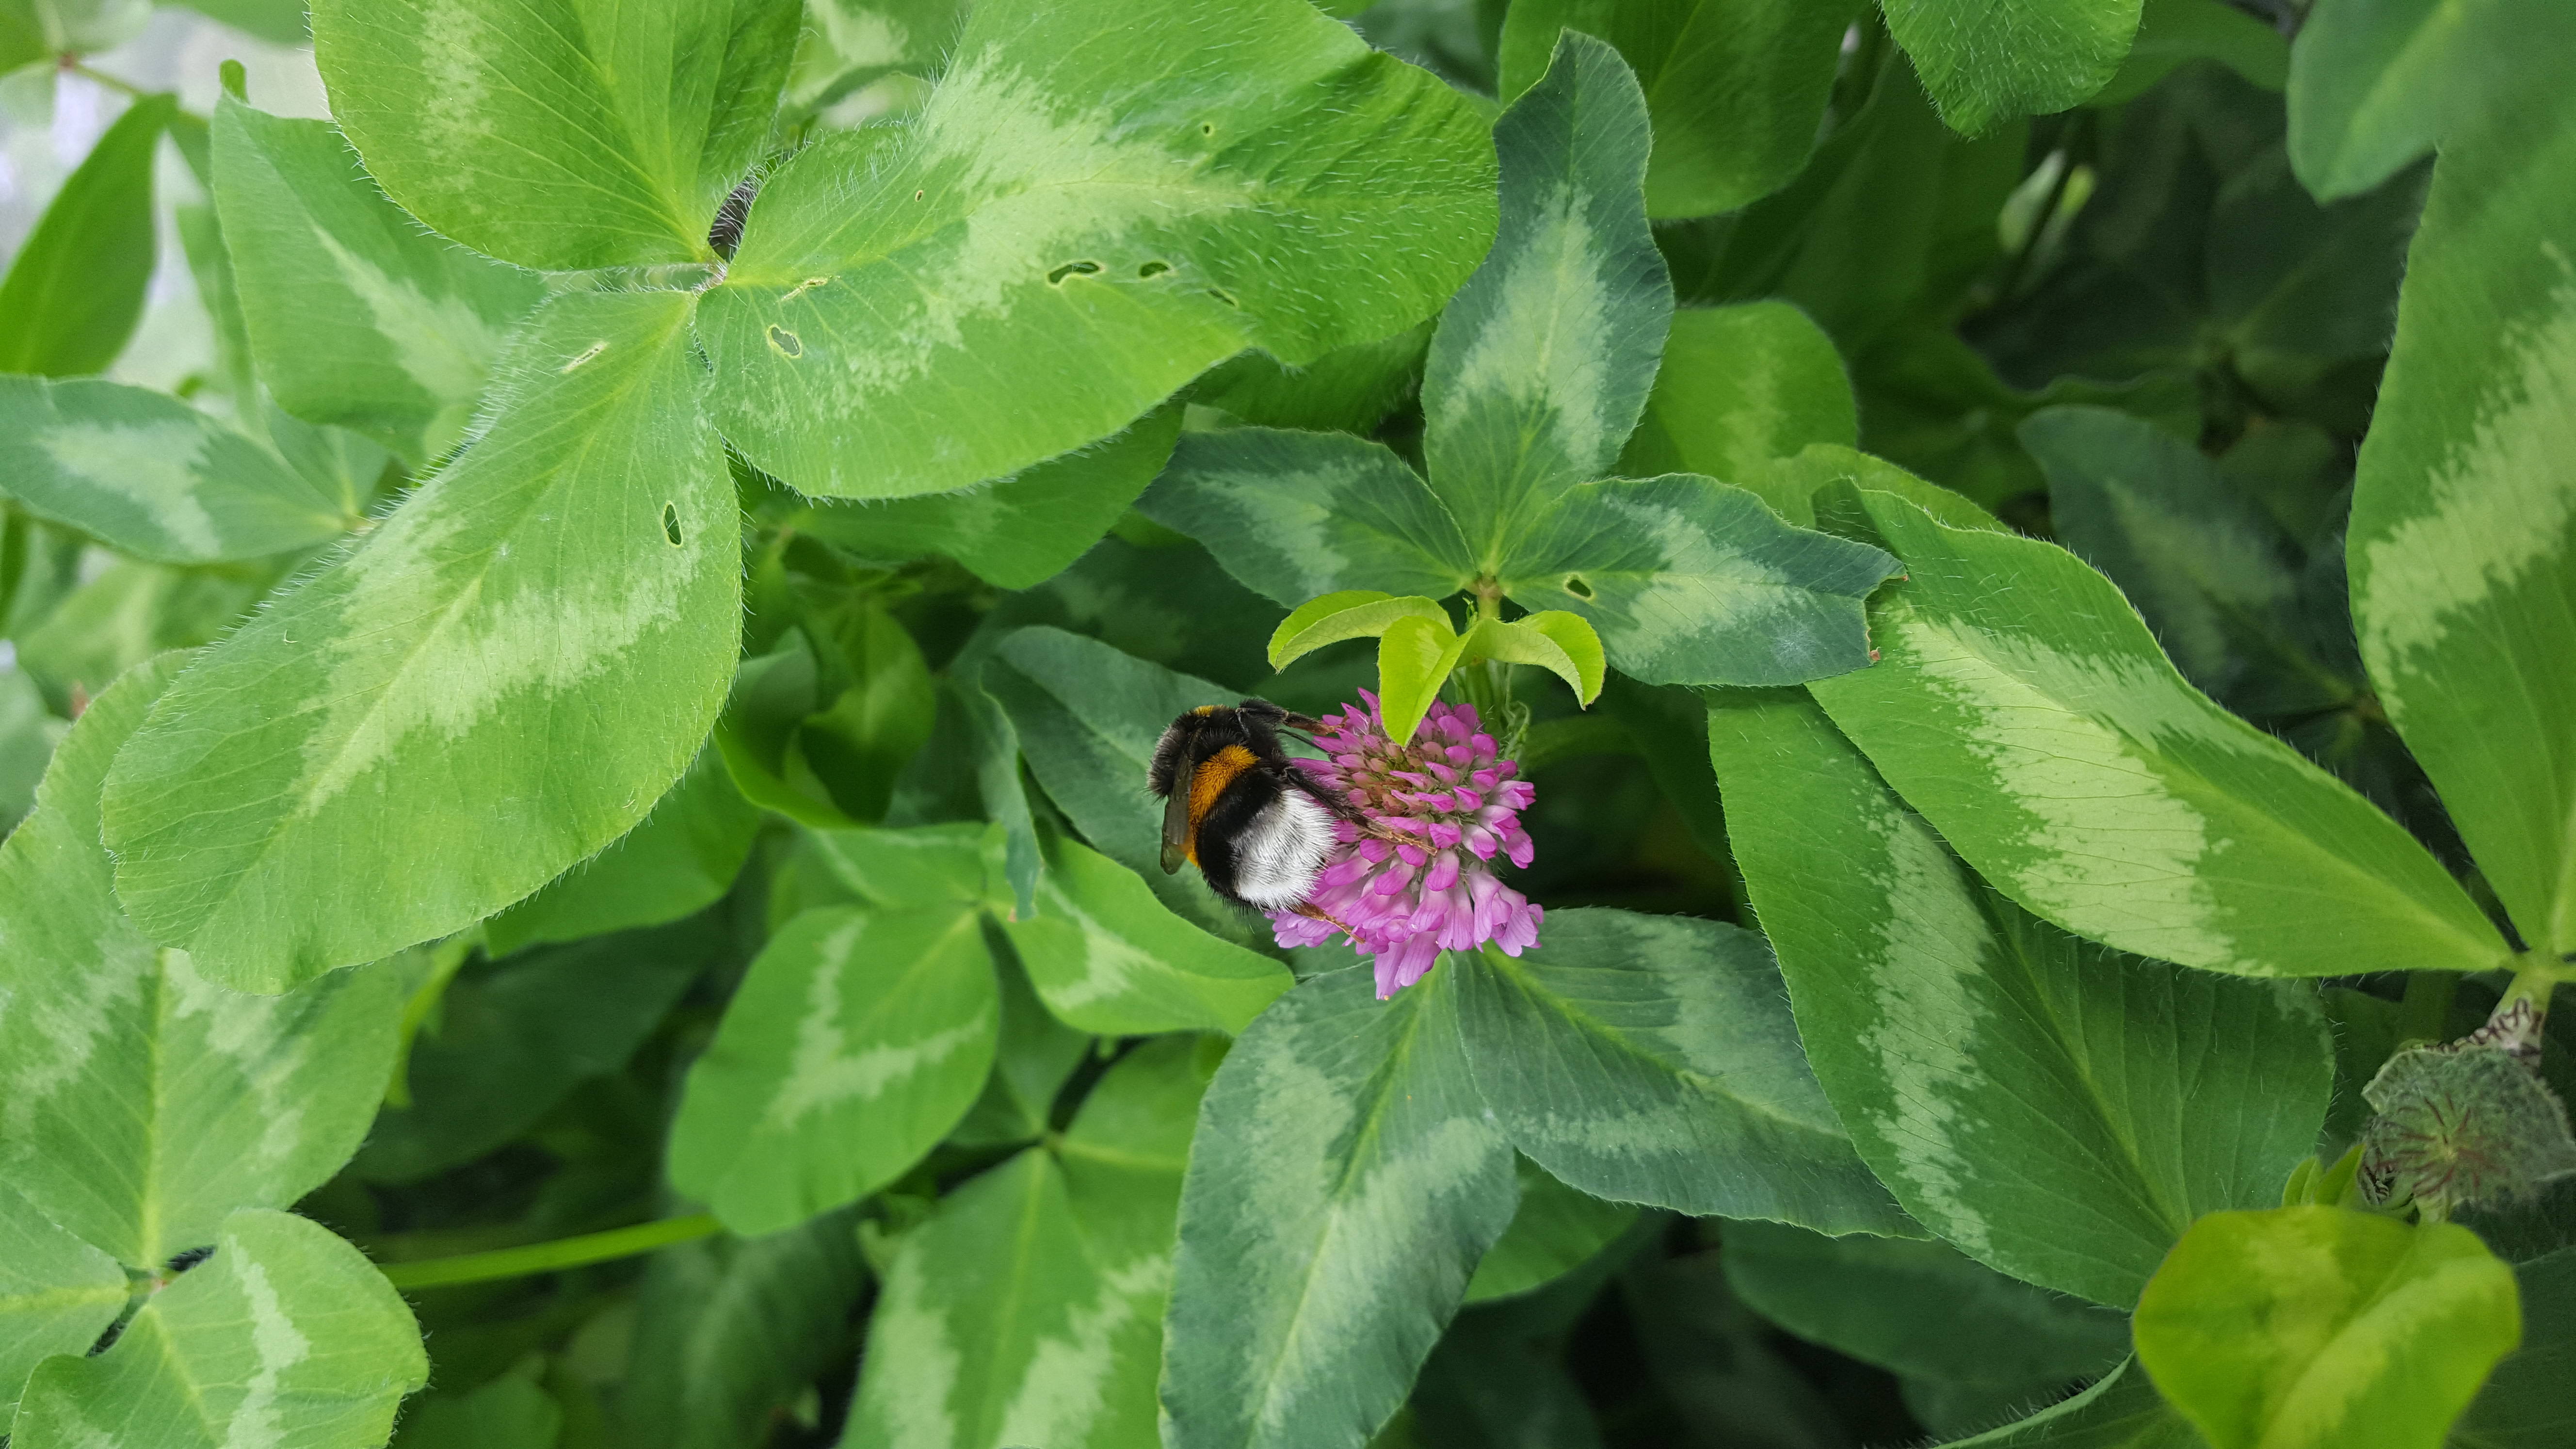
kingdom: Plantae
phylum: Tracheophyta
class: Magnoliopsida
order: Fabales
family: Fabaceae
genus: Trifolium
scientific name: Trifolium pratense
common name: Red clover
